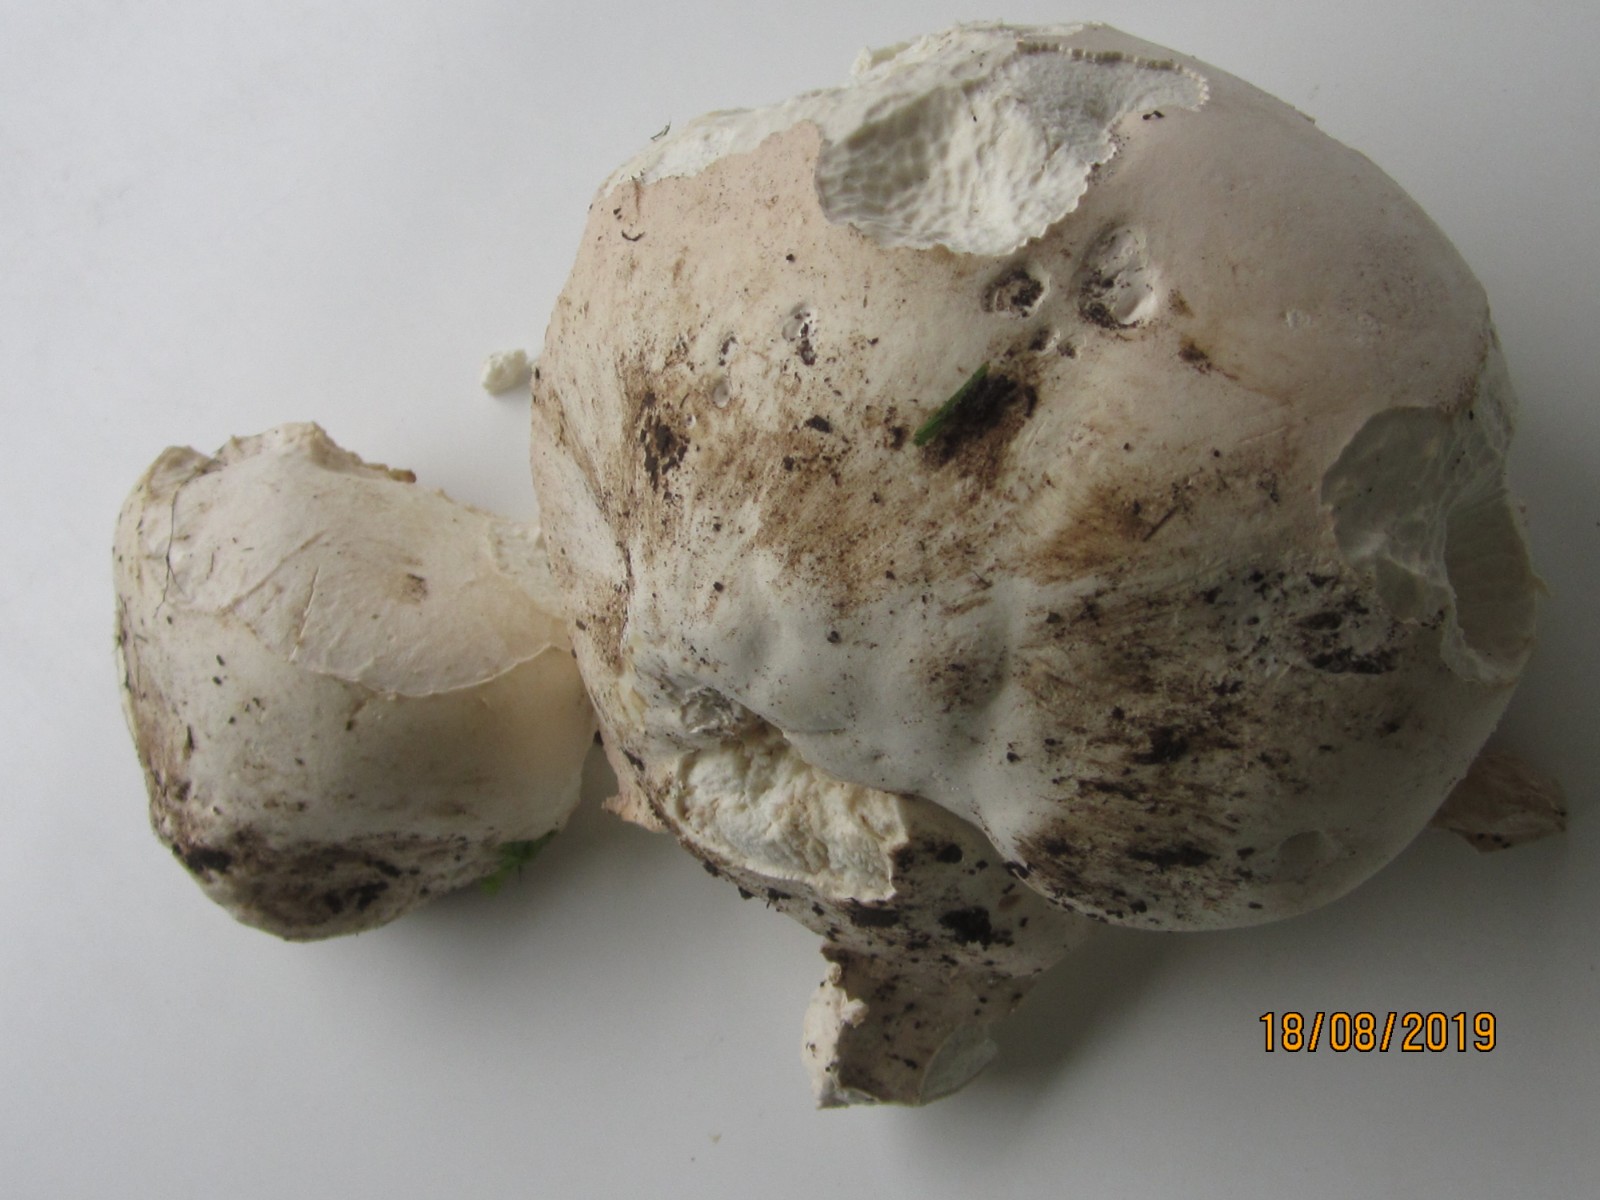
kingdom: Fungi
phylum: Basidiomycota
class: Agaricomycetes
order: Agaricales
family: Lycoperdaceae
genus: Calvatia
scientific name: Calvatia gigantea
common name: kæmpestøvbold
